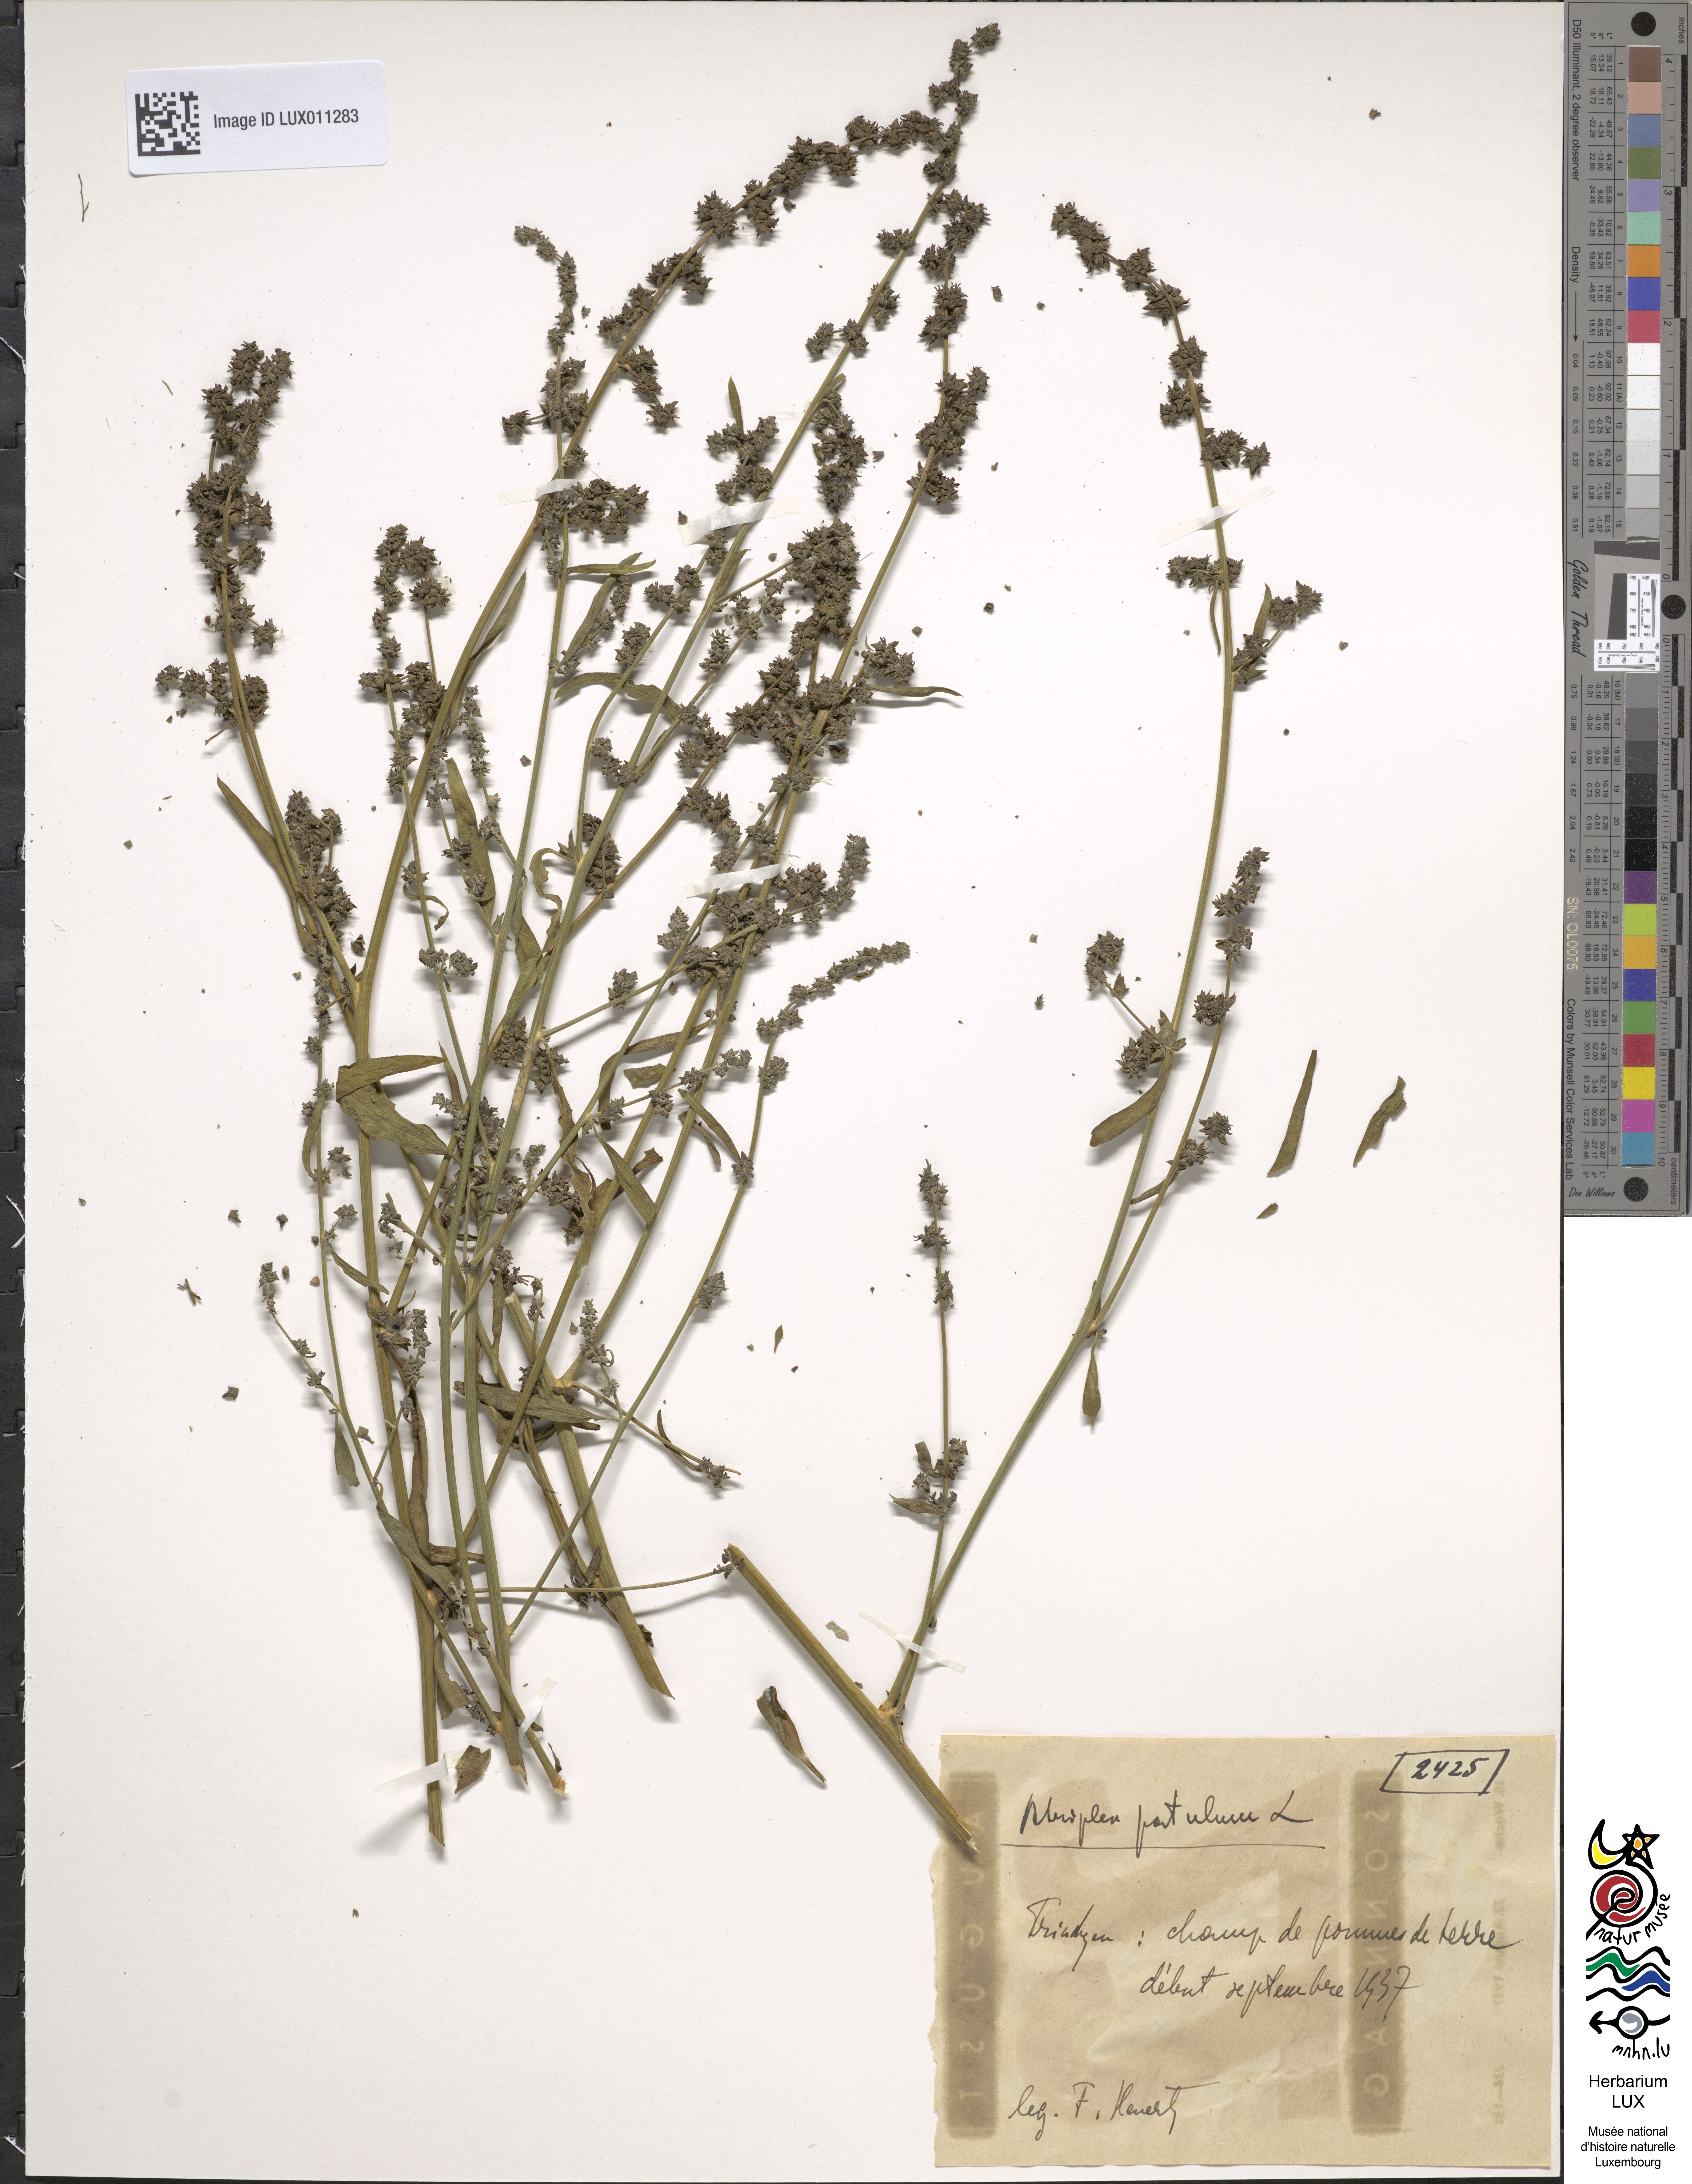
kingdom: Plantae
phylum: Tracheophyta
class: Magnoliopsida
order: Caryophyllales
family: Amaranthaceae
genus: Atriplex
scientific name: Atriplex patula
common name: Common orache
